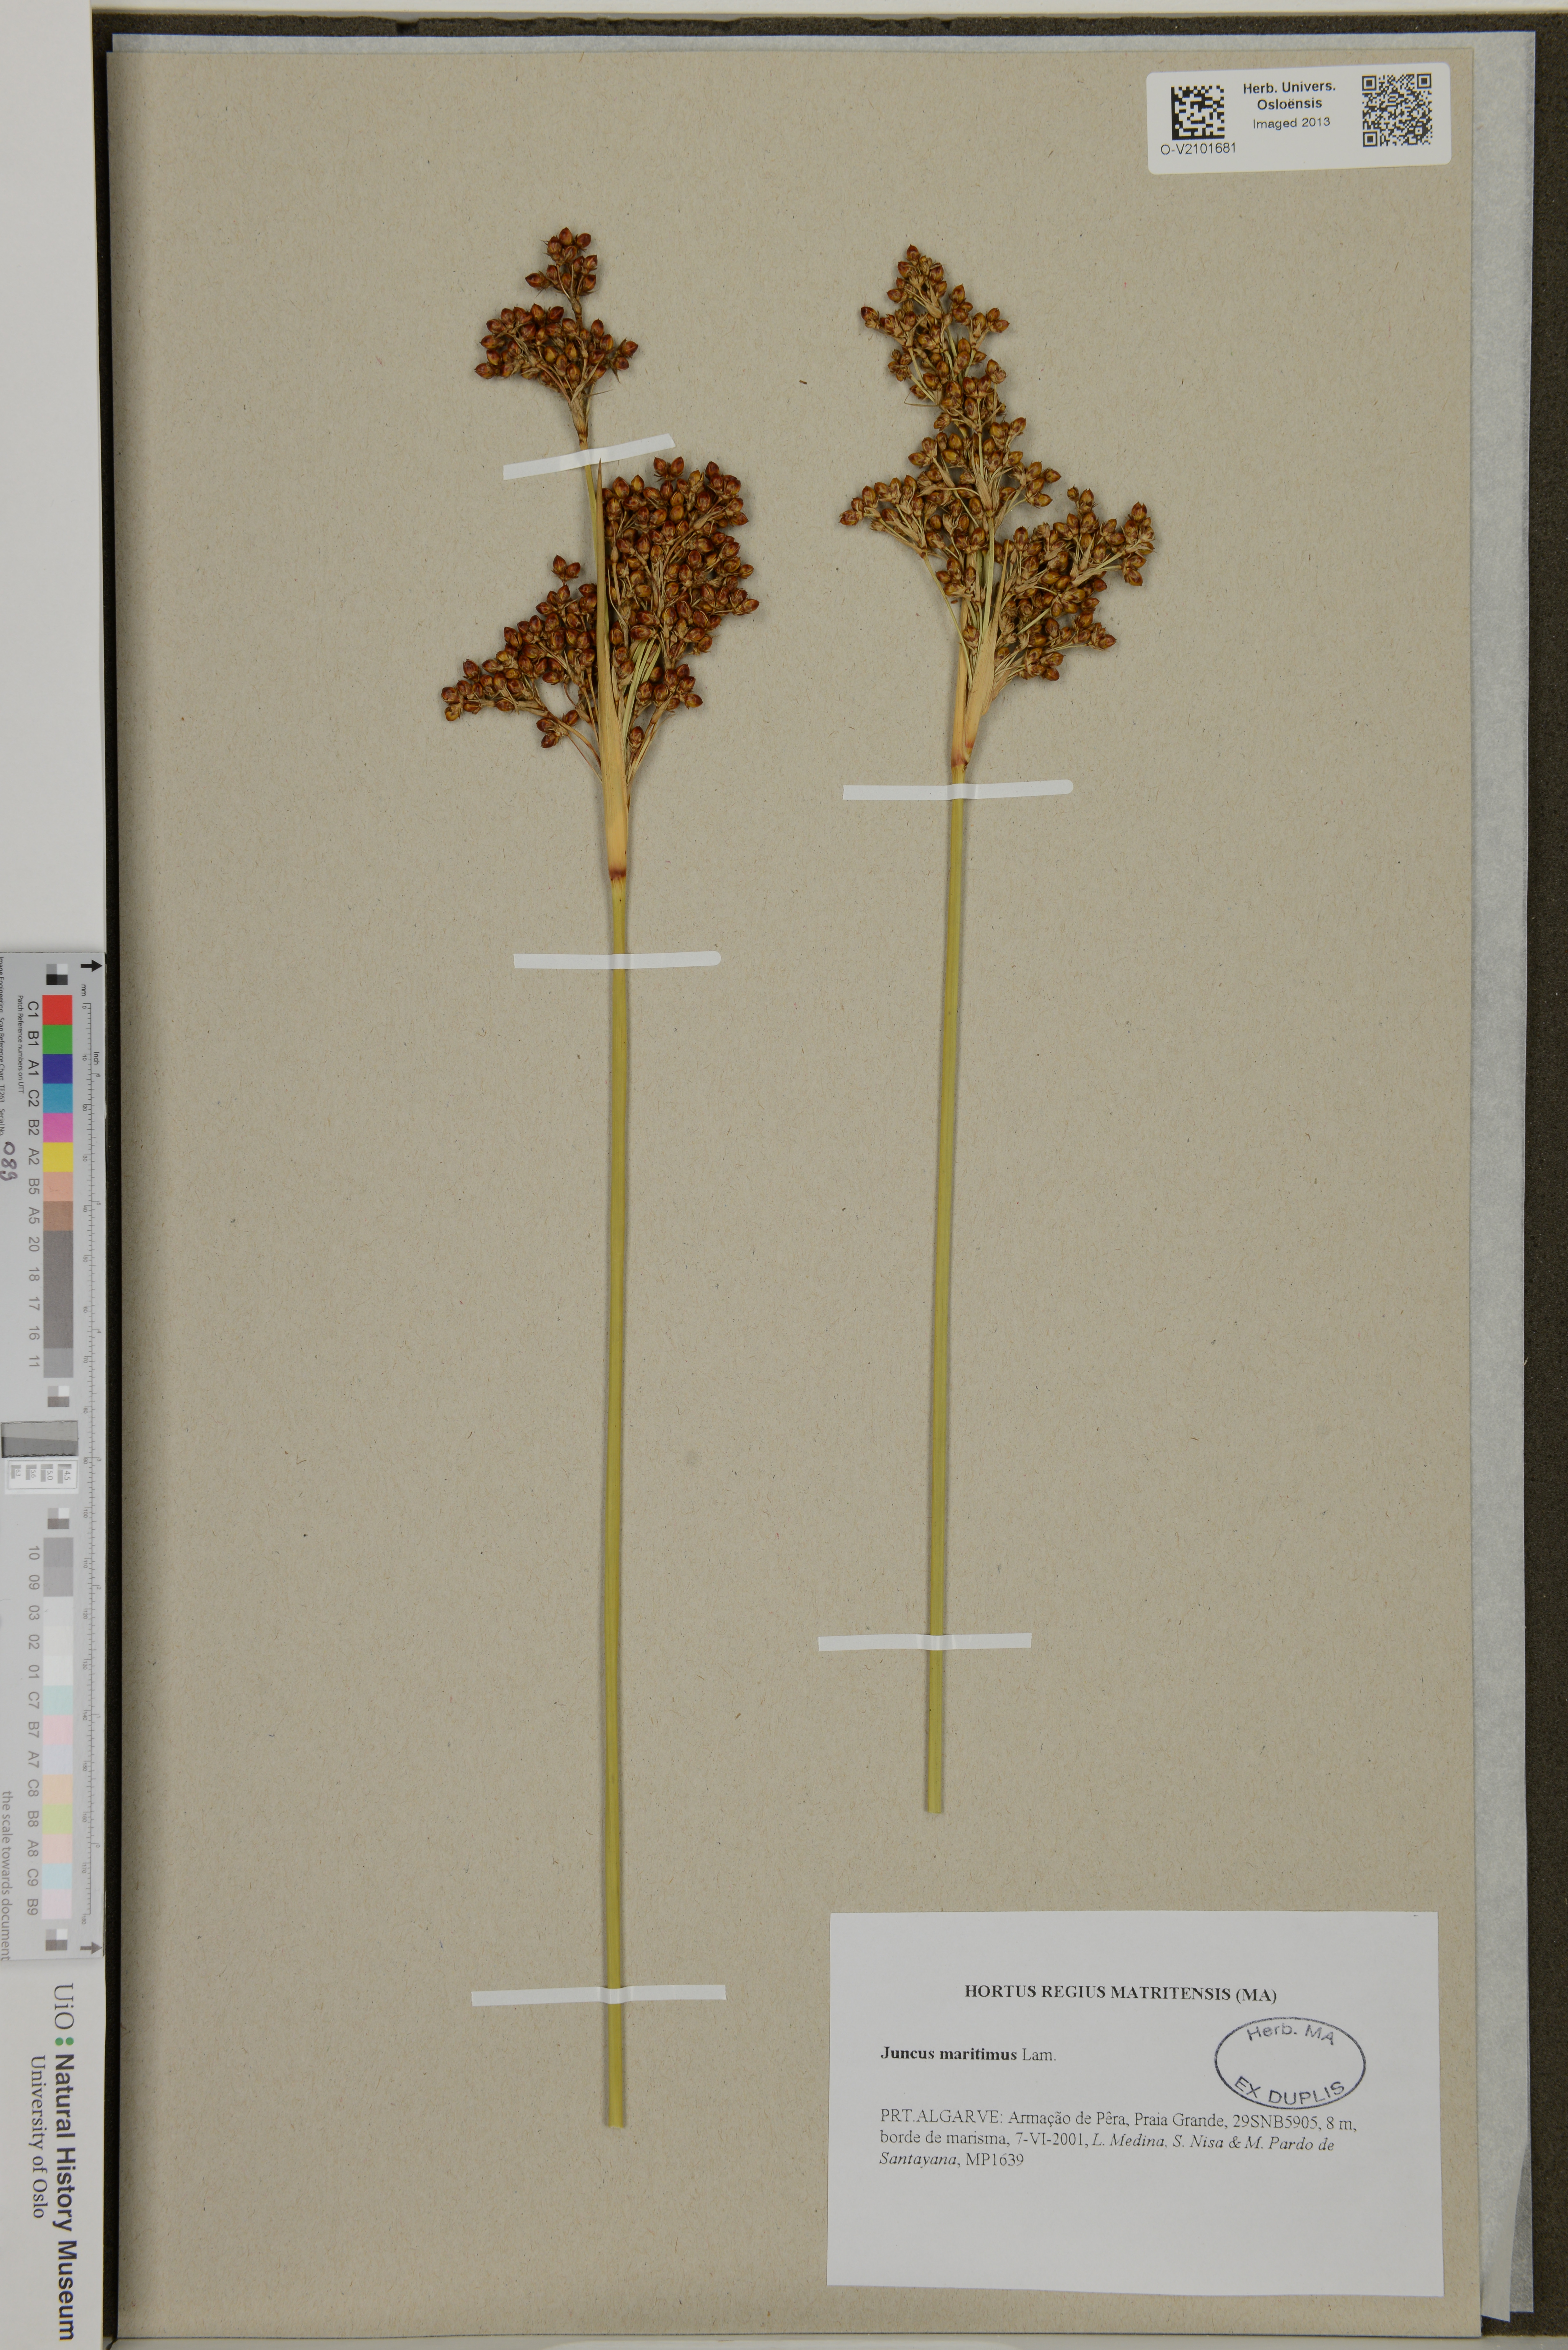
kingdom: Plantae
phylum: Tracheophyta
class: Liliopsida
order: Poales
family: Juncaceae
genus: Juncus
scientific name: Juncus maritimus
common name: Sea rush
